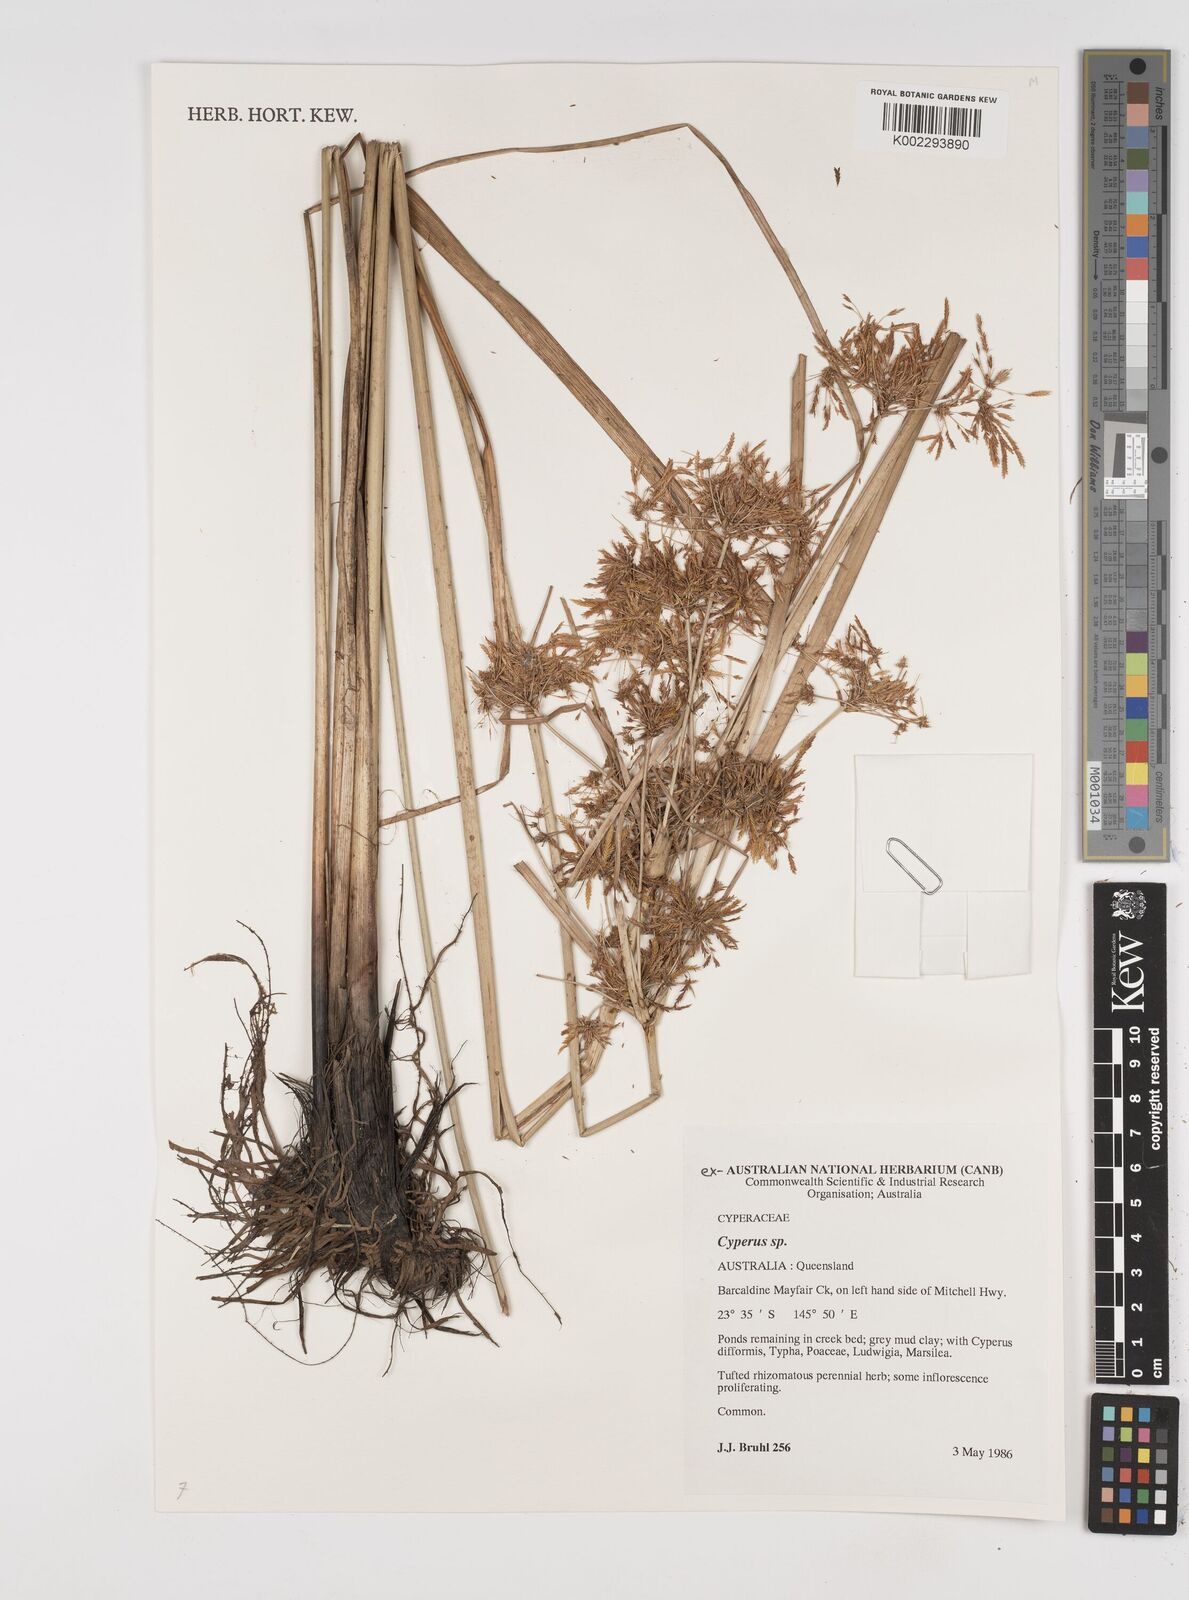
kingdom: Plantae
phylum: Tracheophyta
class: Liliopsida
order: Poales
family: Cyperaceae
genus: Cyperus
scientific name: Cyperus
